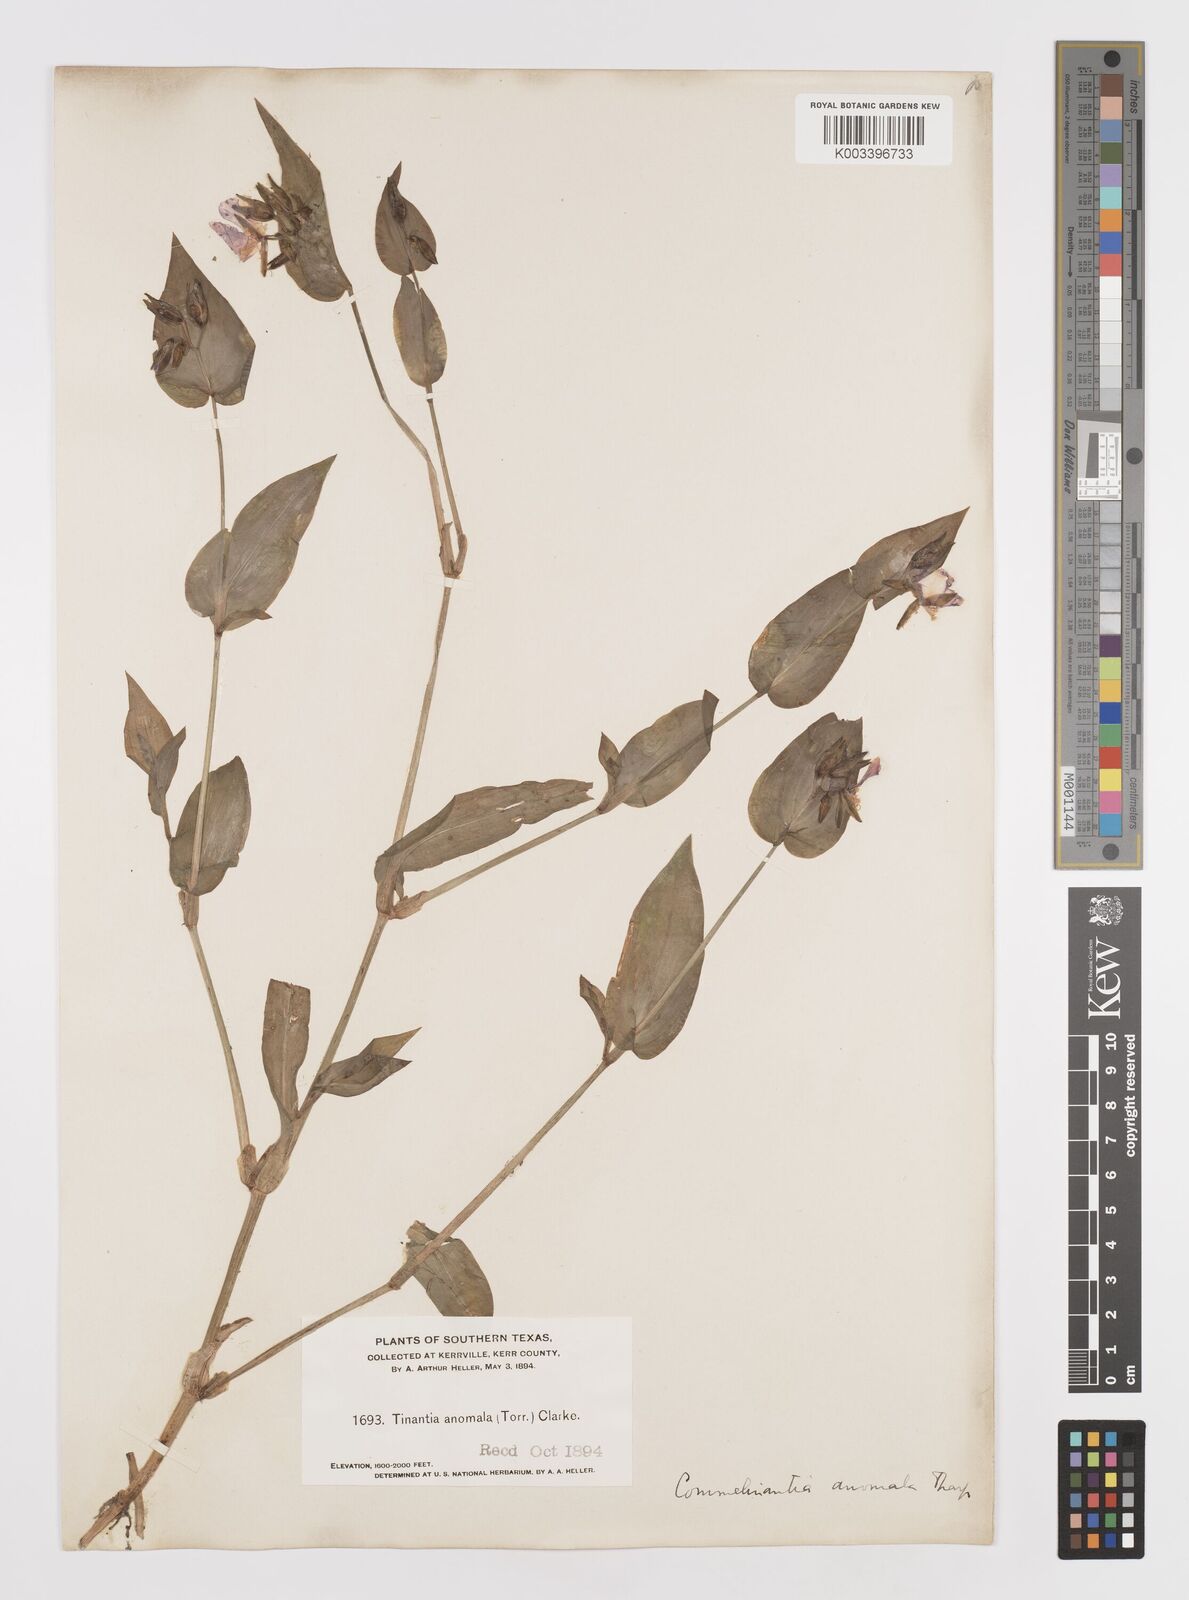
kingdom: Plantae
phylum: Tracheophyta
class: Liliopsida
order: Commelinales
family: Commelinaceae
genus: Tinantia
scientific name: Tinantia anomala
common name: False dayflower
